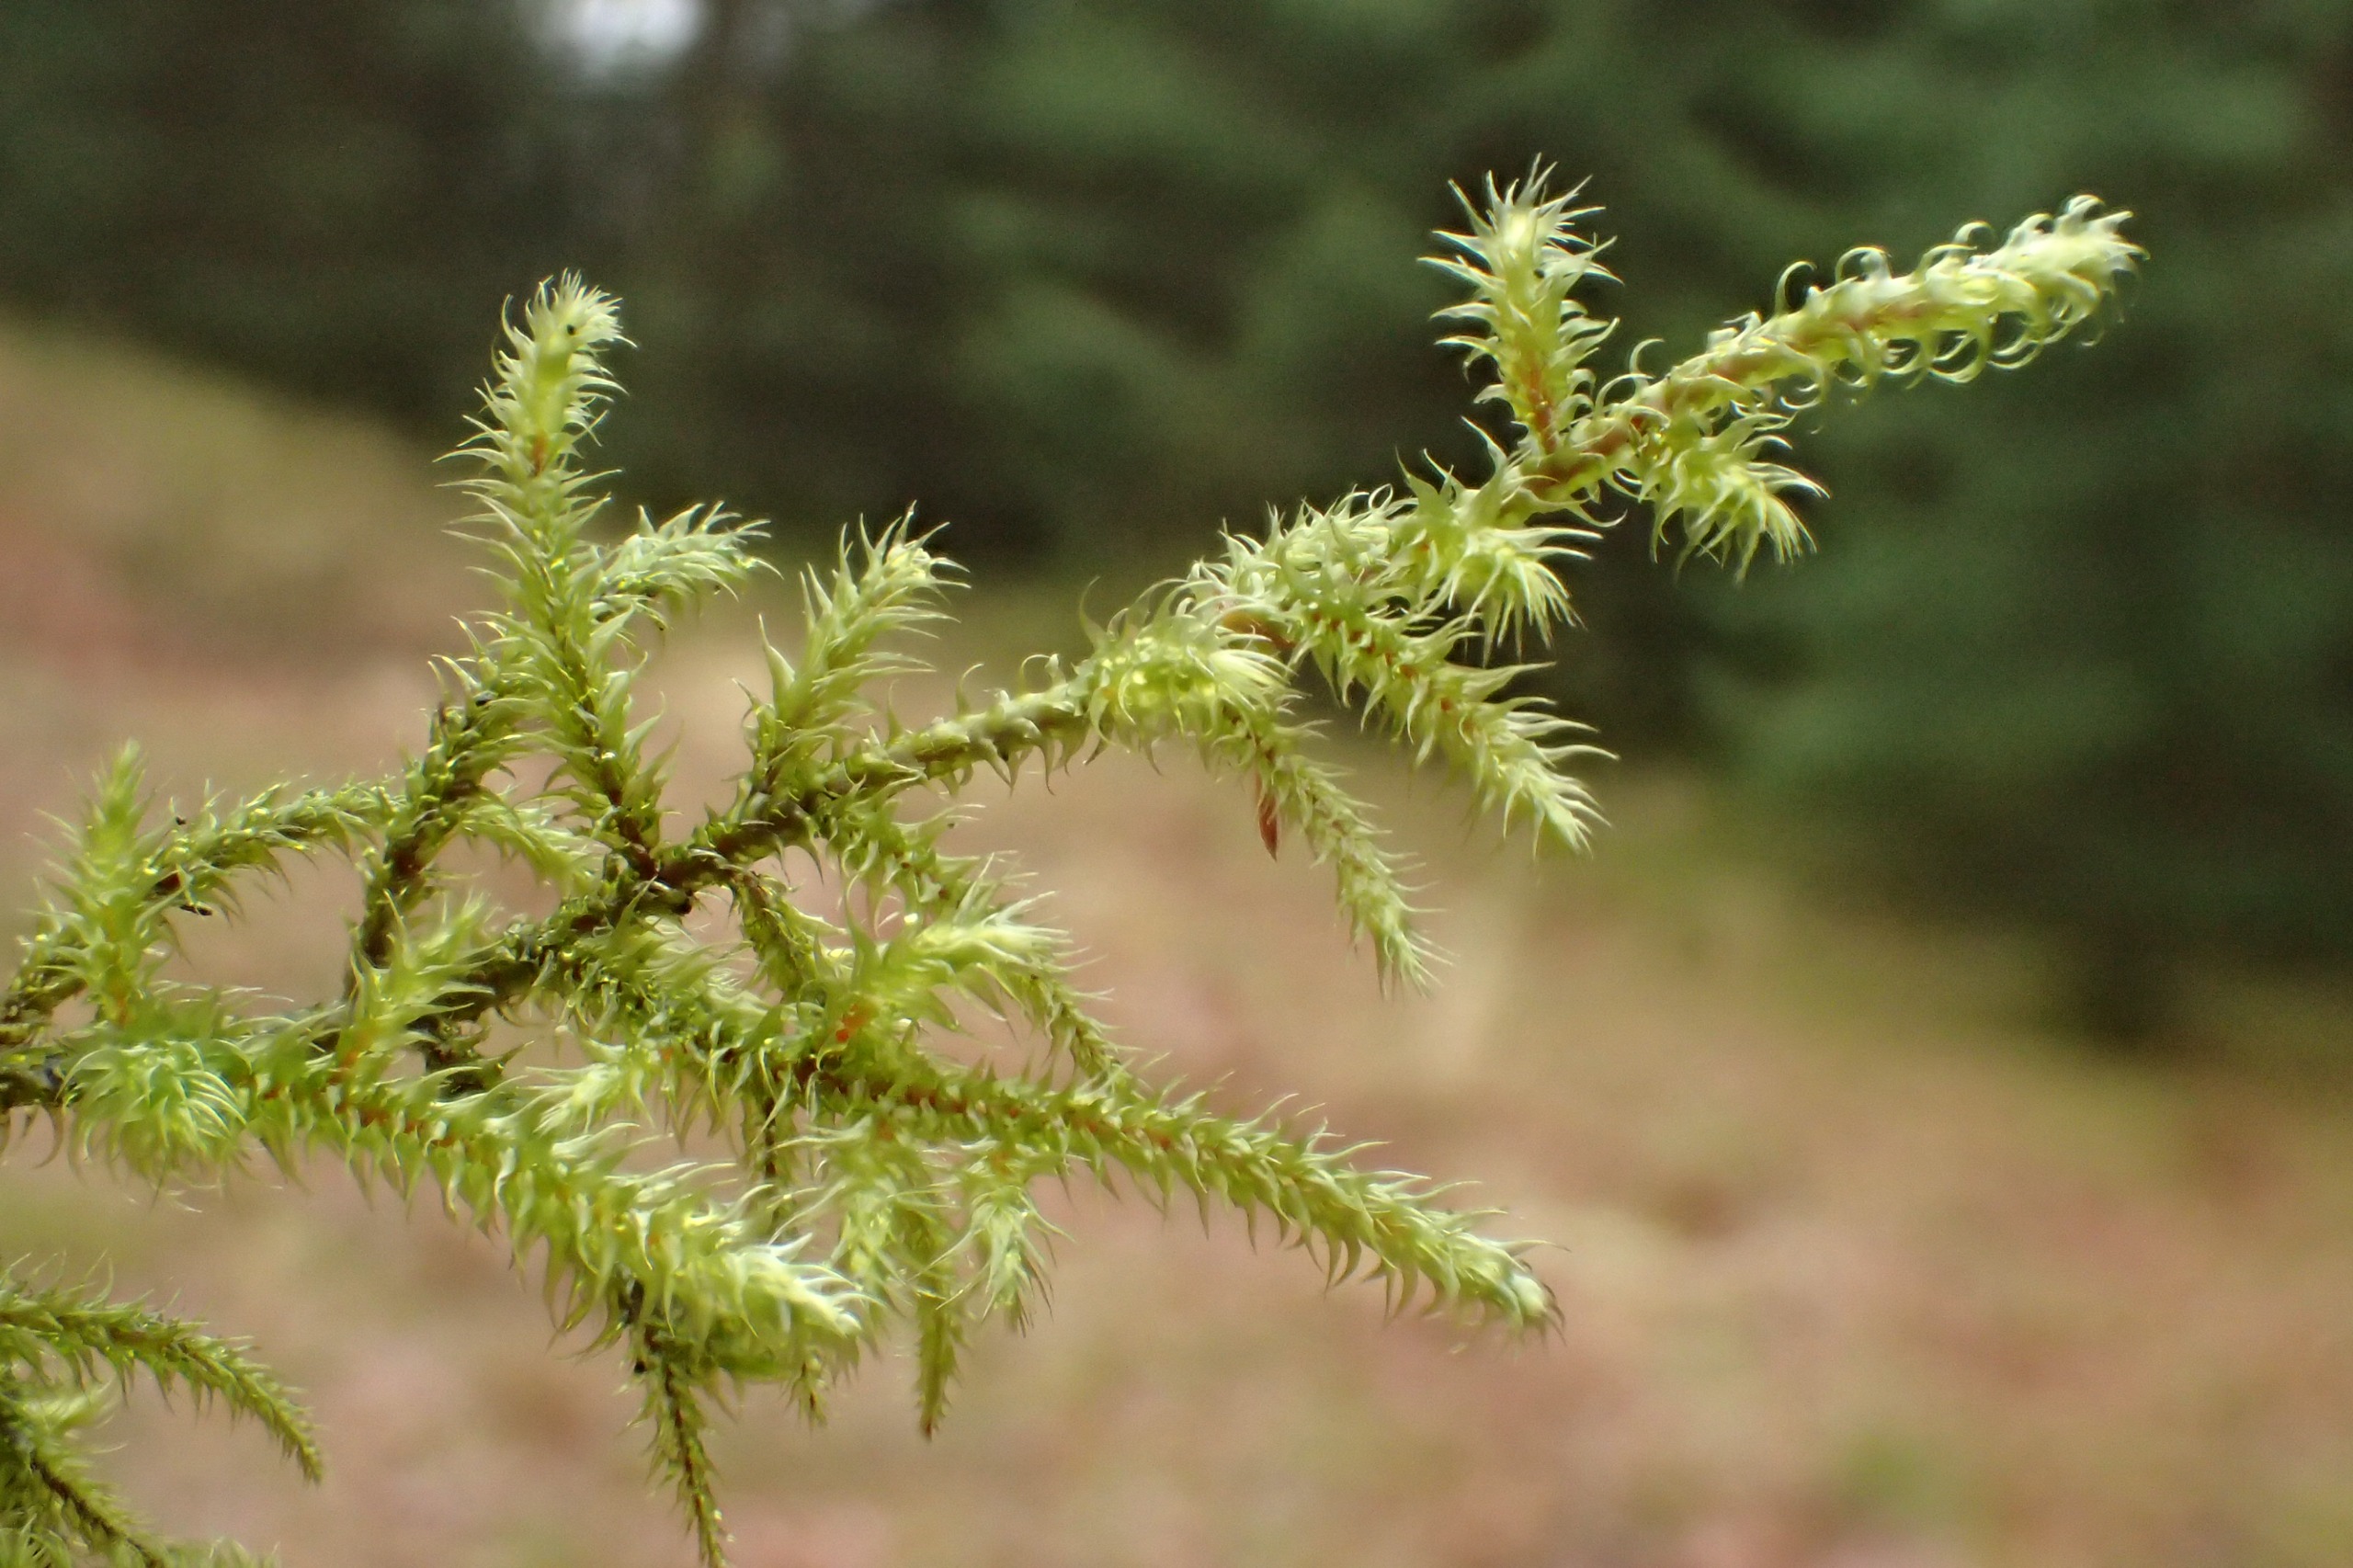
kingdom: Plantae
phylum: Bryophyta
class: Bryopsida
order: Hypnales
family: Hylocomiaceae
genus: Rhytidiadelphus
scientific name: Rhytidiadelphus loreus
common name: Ulvefod-kransemos
